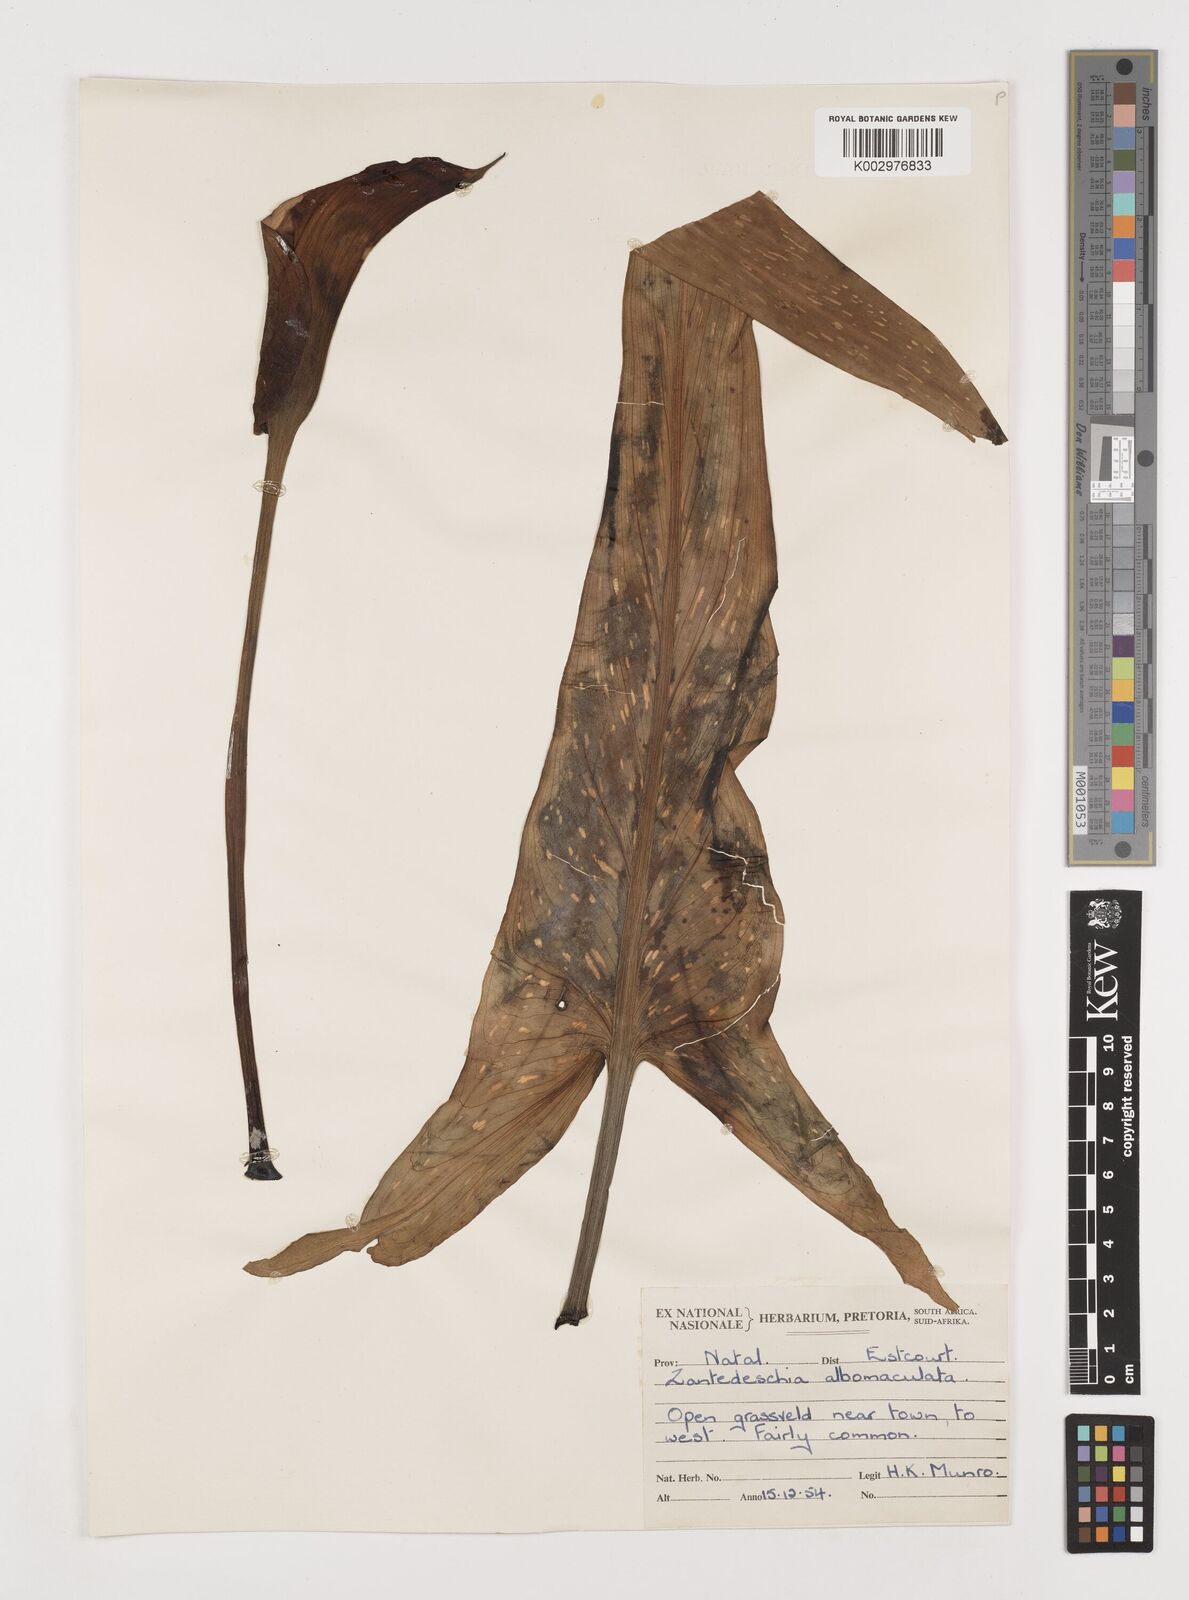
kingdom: Plantae
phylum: Tracheophyta
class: Liliopsida
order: Alismatales
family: Araceae
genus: Zantedeschia
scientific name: Zantedeschia albomaculata
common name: Spotted calla lily
